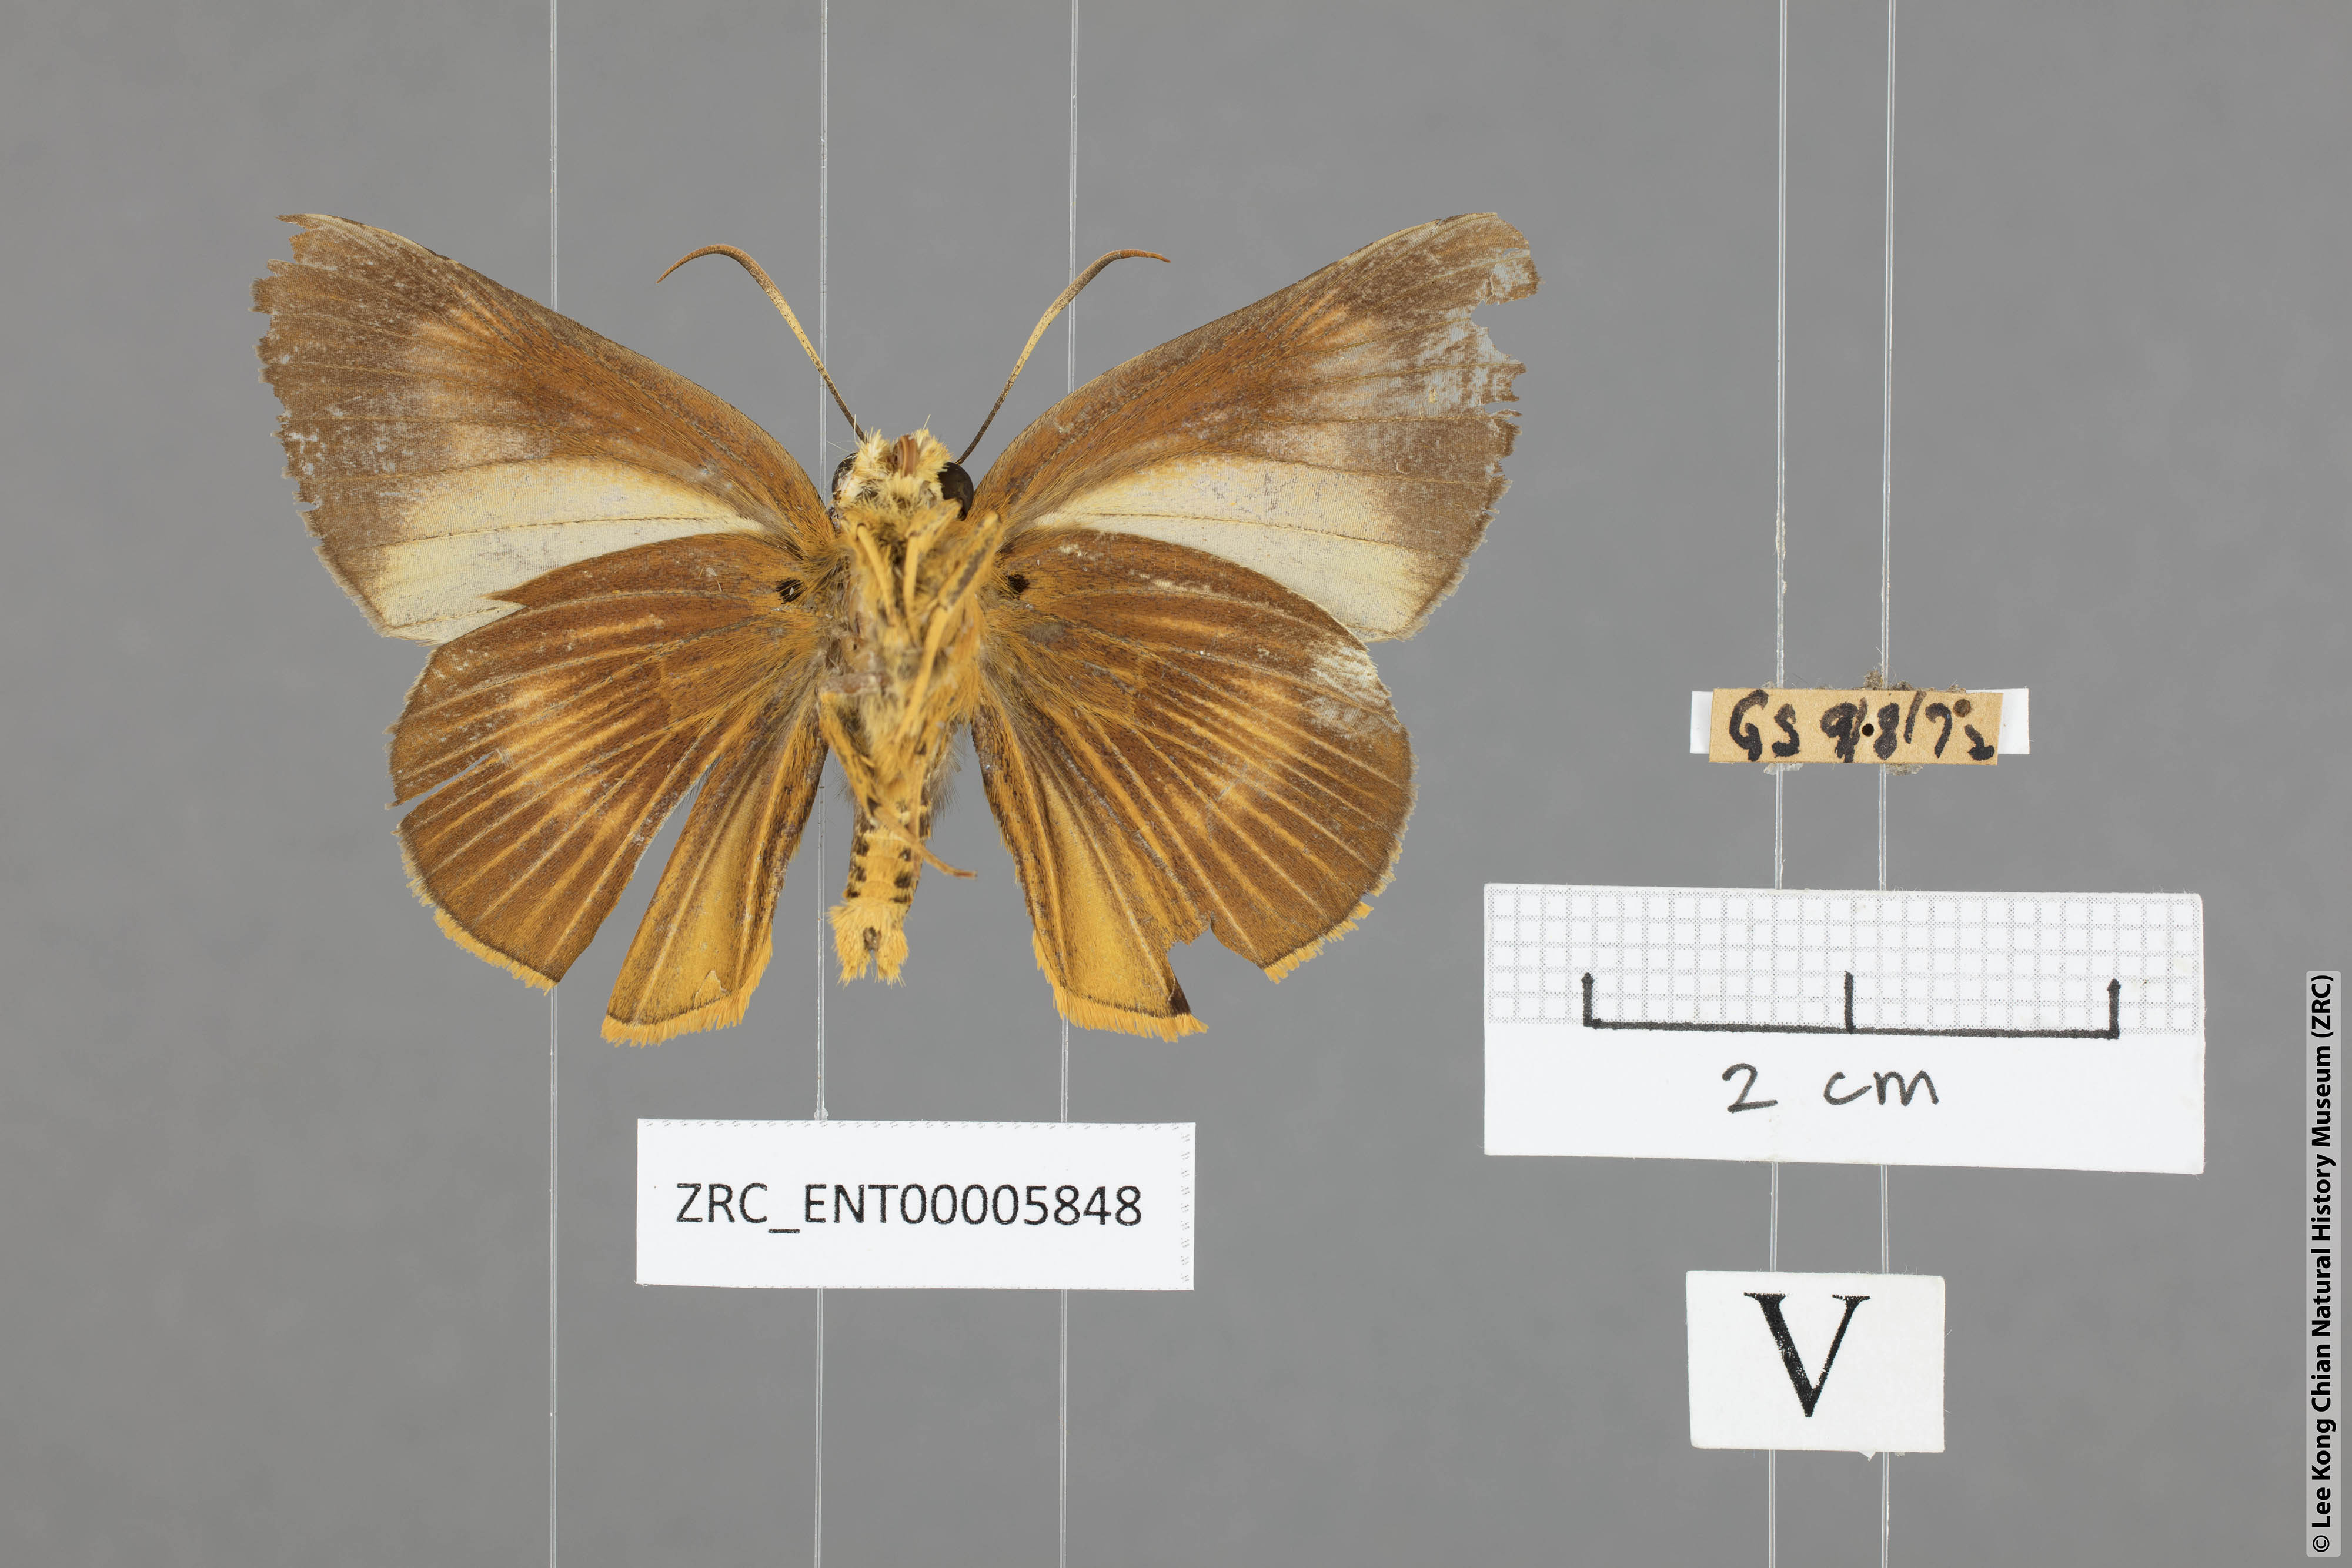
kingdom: Animalia
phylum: Arthropoda
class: Insecta
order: Lepidoptera
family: Hesperiidae
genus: Bibasis
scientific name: Bibasis Burara harisa
